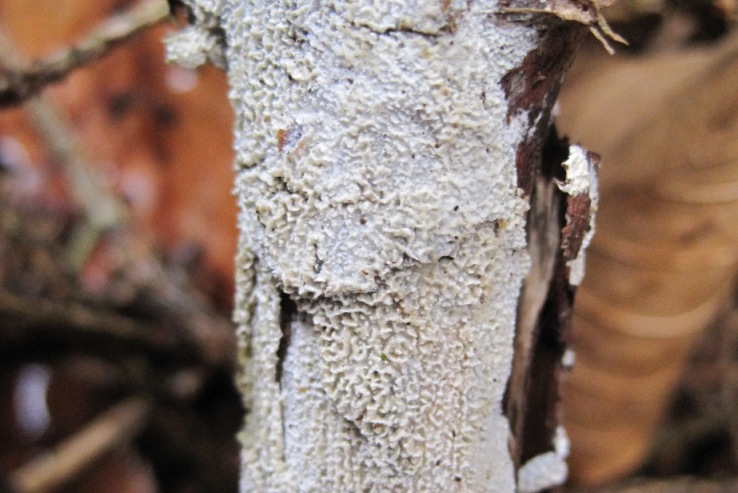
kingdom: Fungi
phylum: Basidiomycota
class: Agaricomycetes
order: Hymenochaetales
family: Schizoporaceae
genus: Schizopora
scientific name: Schizopora paradoxa
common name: hvid tandsvamp
